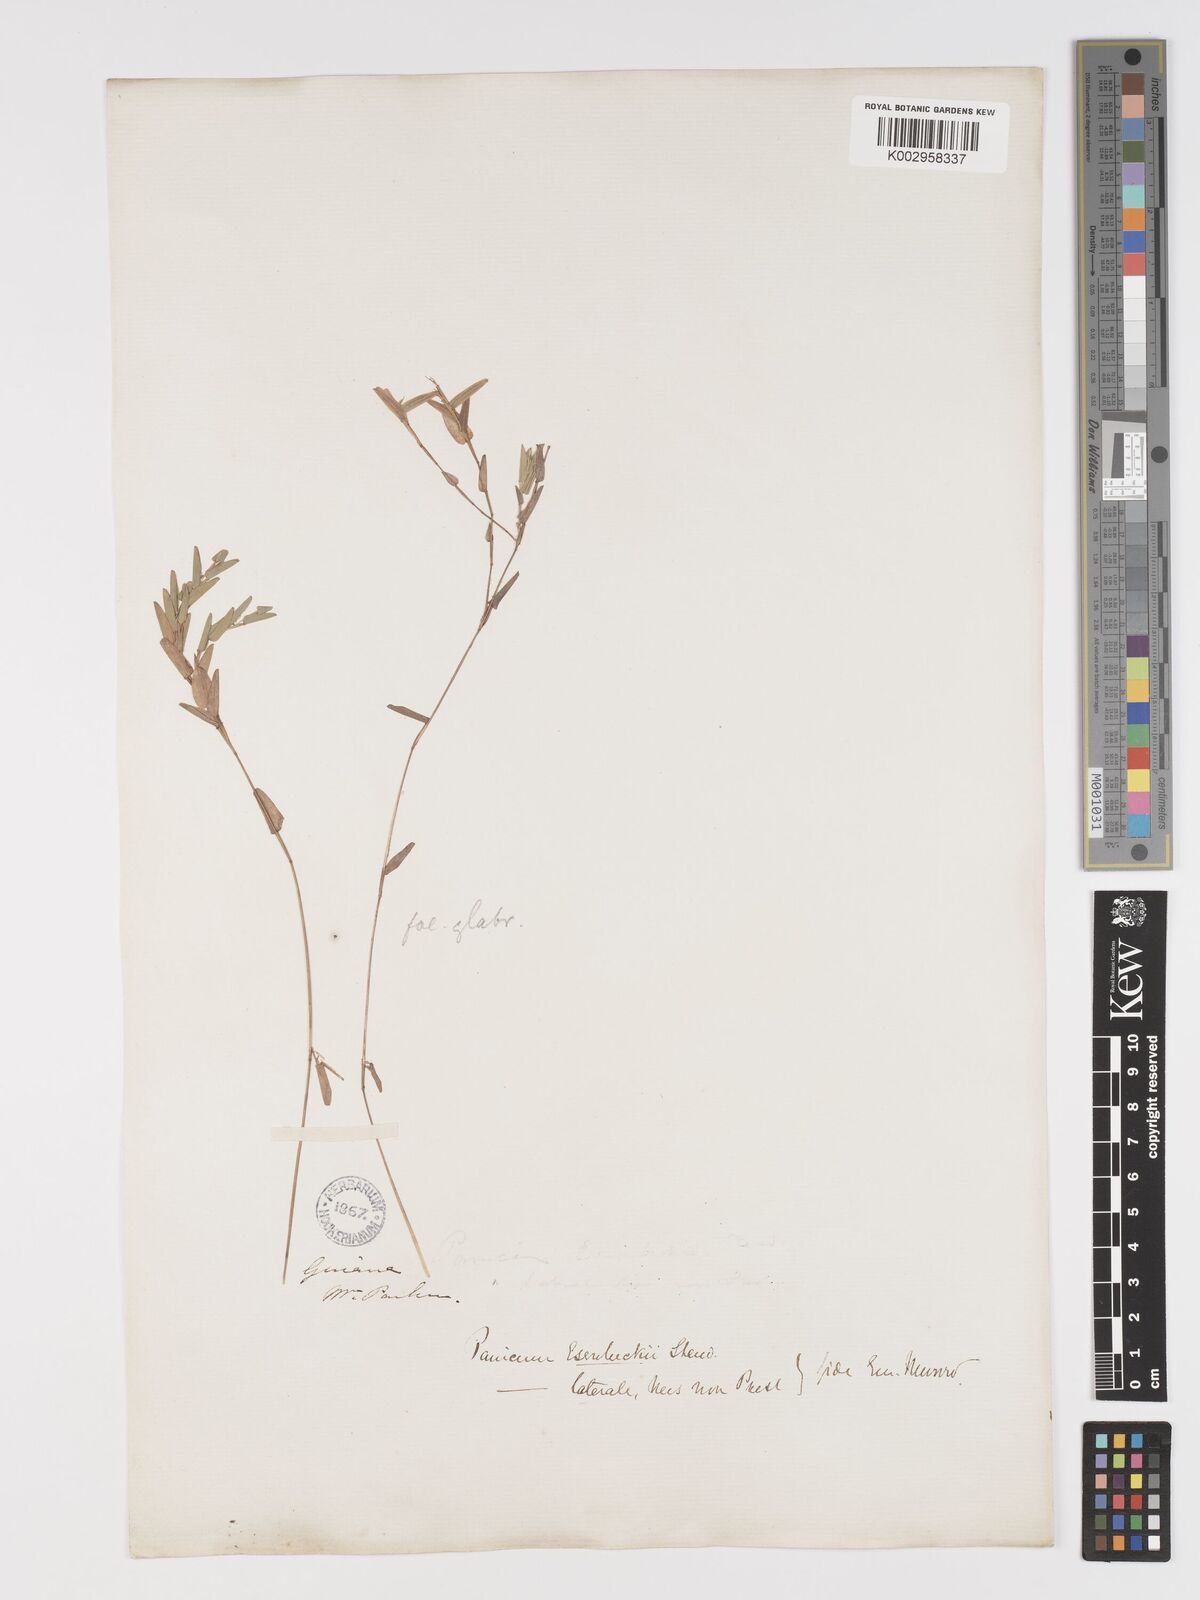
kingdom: Plantae
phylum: Tracheophyta
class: Liliopsida
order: Poales
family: Poaceae
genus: Raddiella
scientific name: Raddiella esenbeckii
